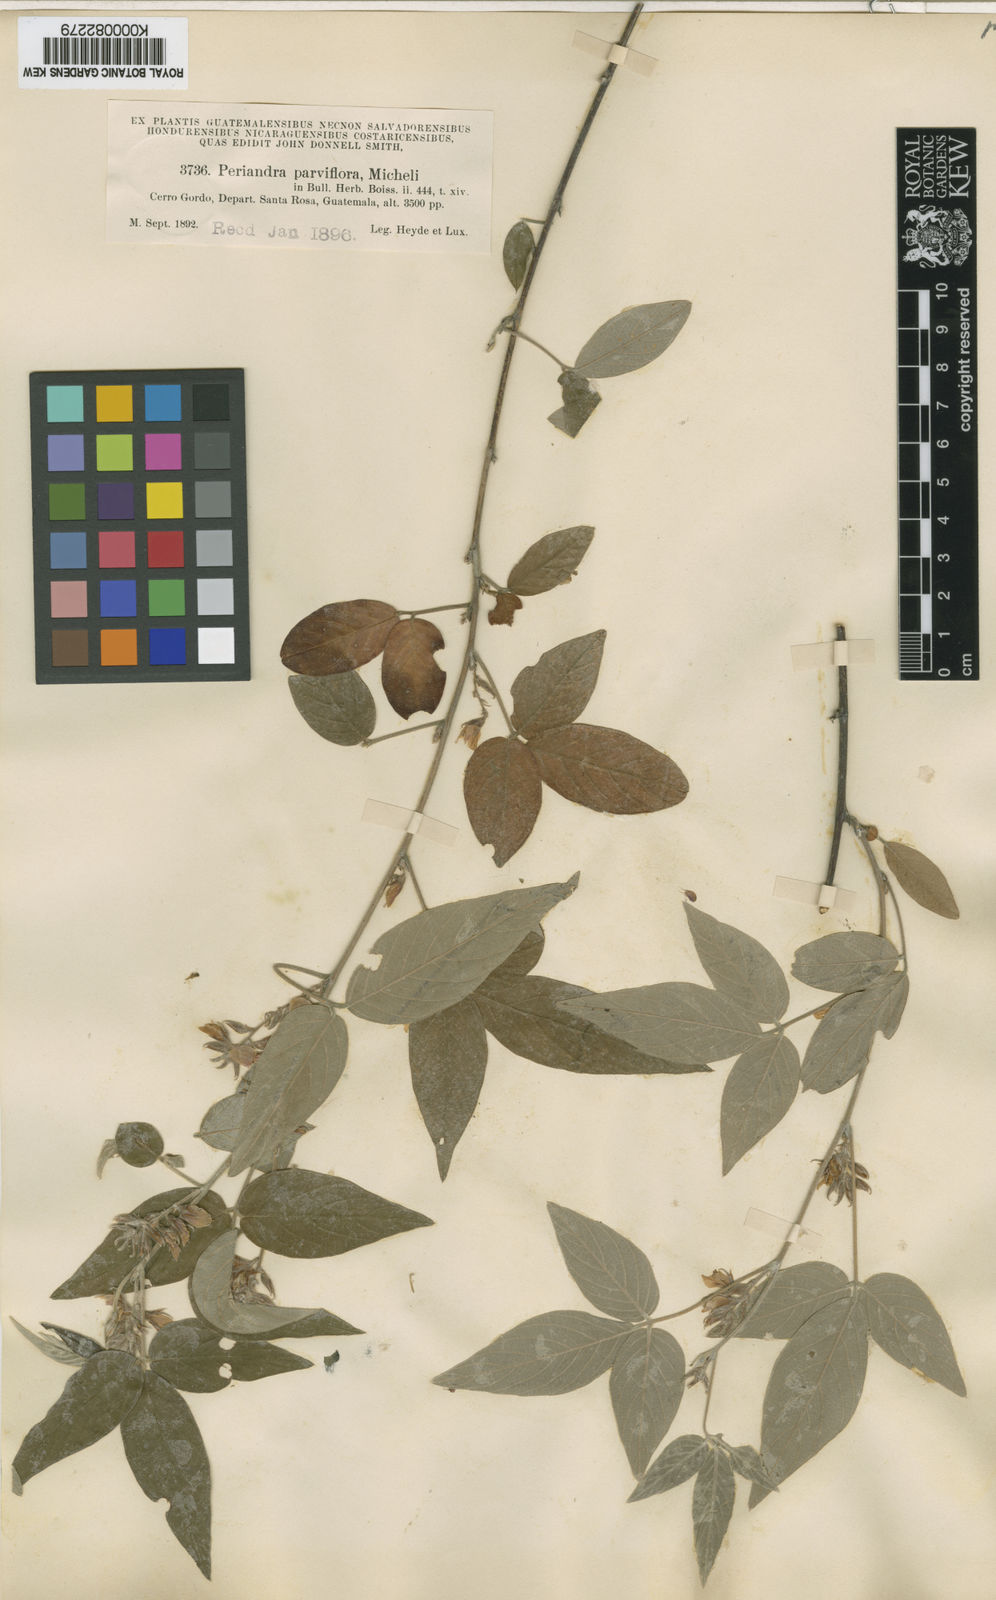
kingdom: Plantae
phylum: Tracheophyta
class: Magnoliopsida
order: Fabales
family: Fabaceae
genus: Desmodium
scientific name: Desmodium metallicum
